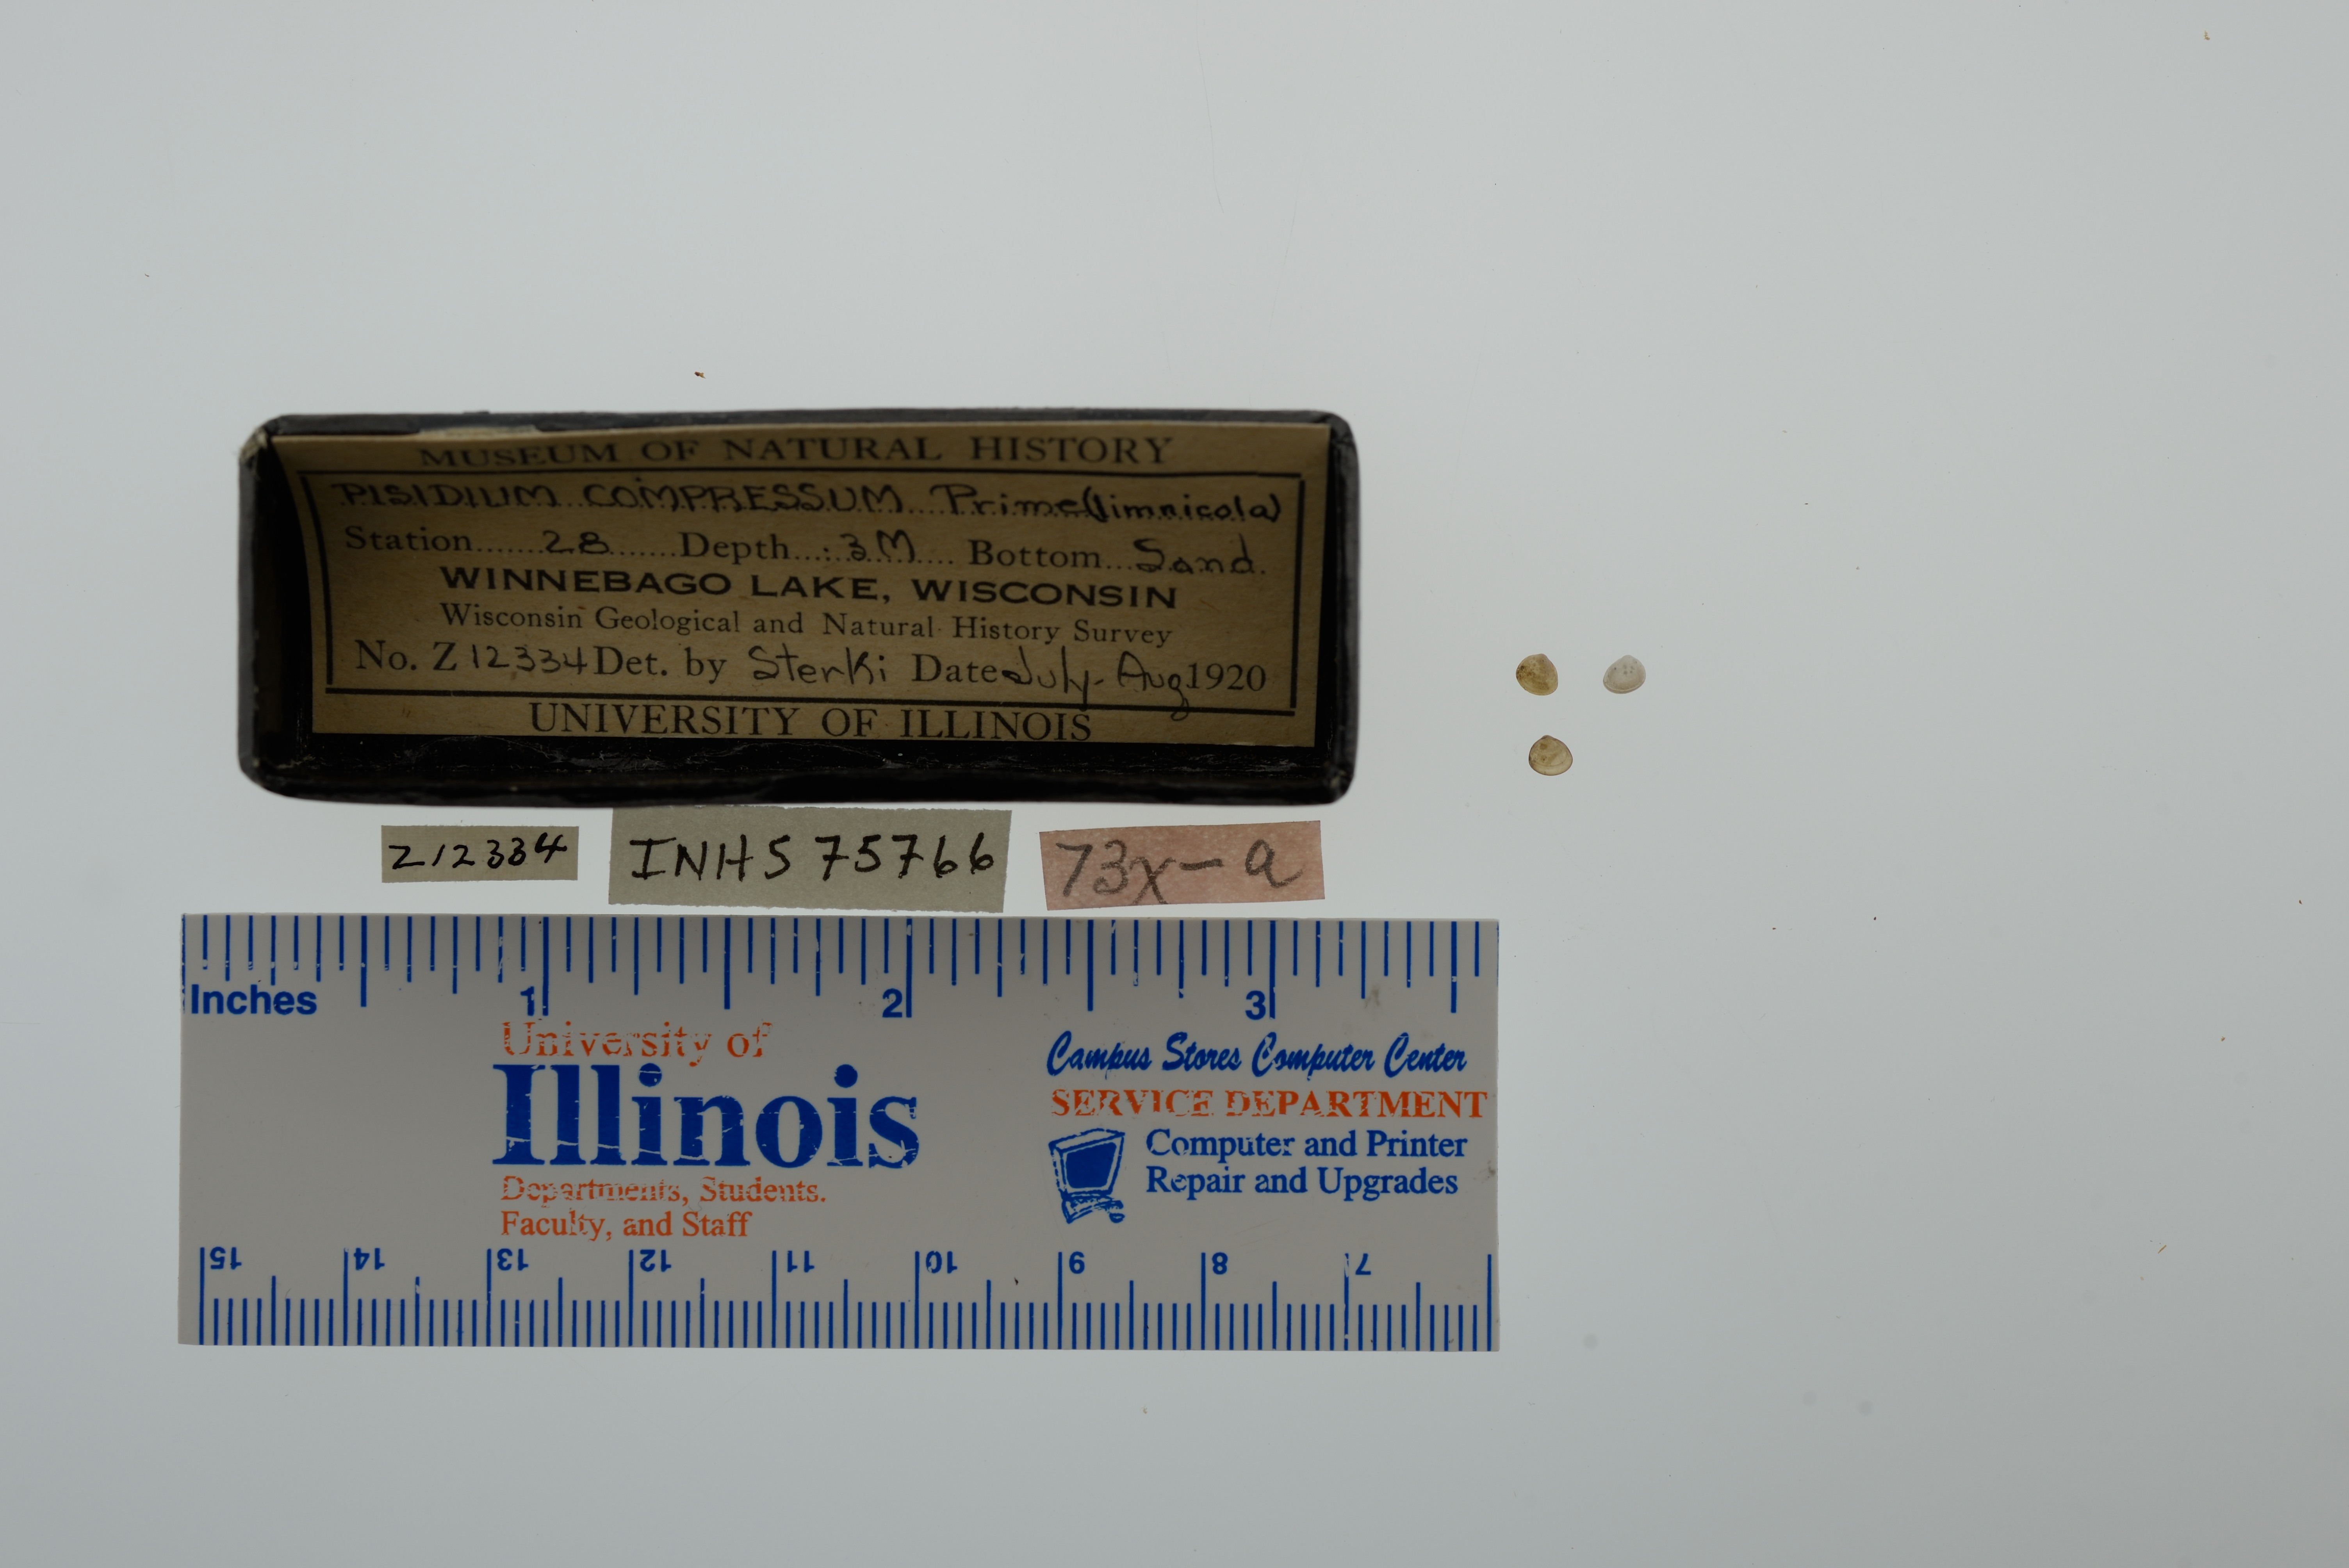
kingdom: Animalia
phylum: Mollusca
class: Bivalvia
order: Sphaeriida
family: Sphaeriidae
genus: Euglesa
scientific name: Euglesa compressa
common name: Ridgedbeak peaclam
